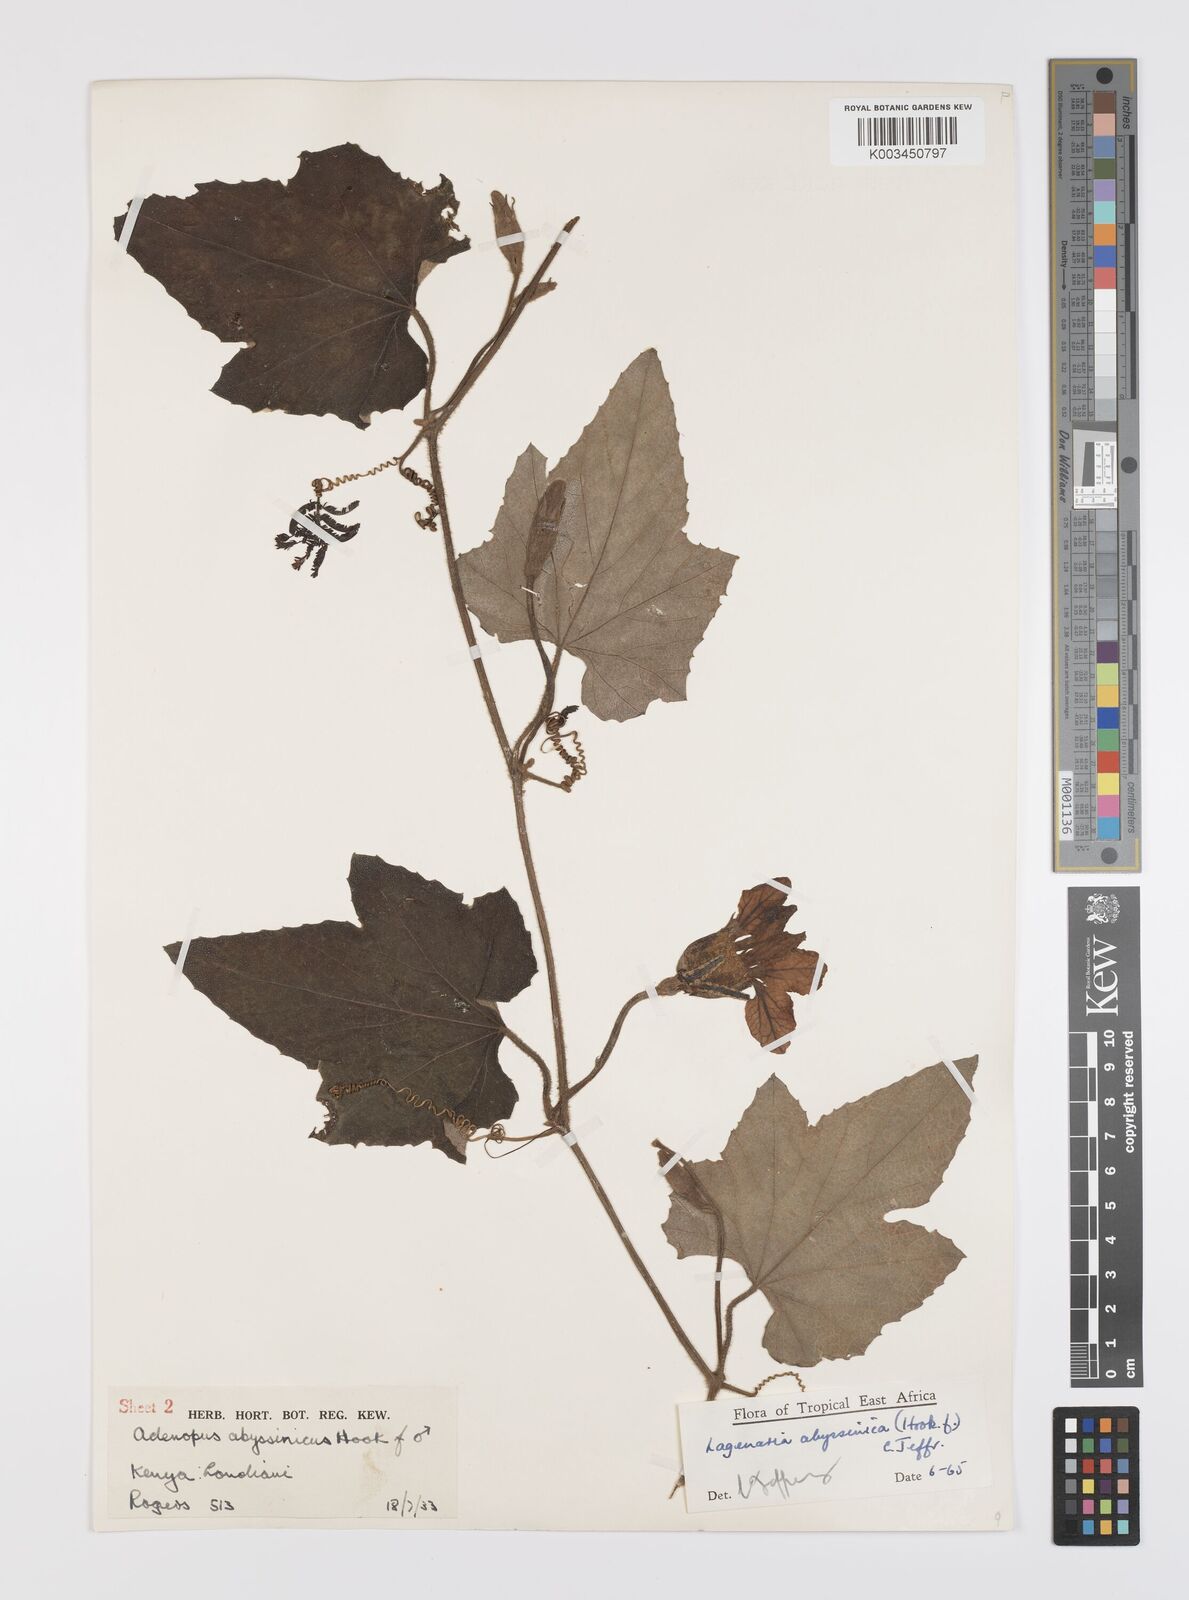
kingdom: Plantae
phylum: Tracheophyta
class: Magnoliopsida
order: Cucurbitales
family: Cucurbitaceae
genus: Lagenaria
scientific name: Lagenaria abyssinica
